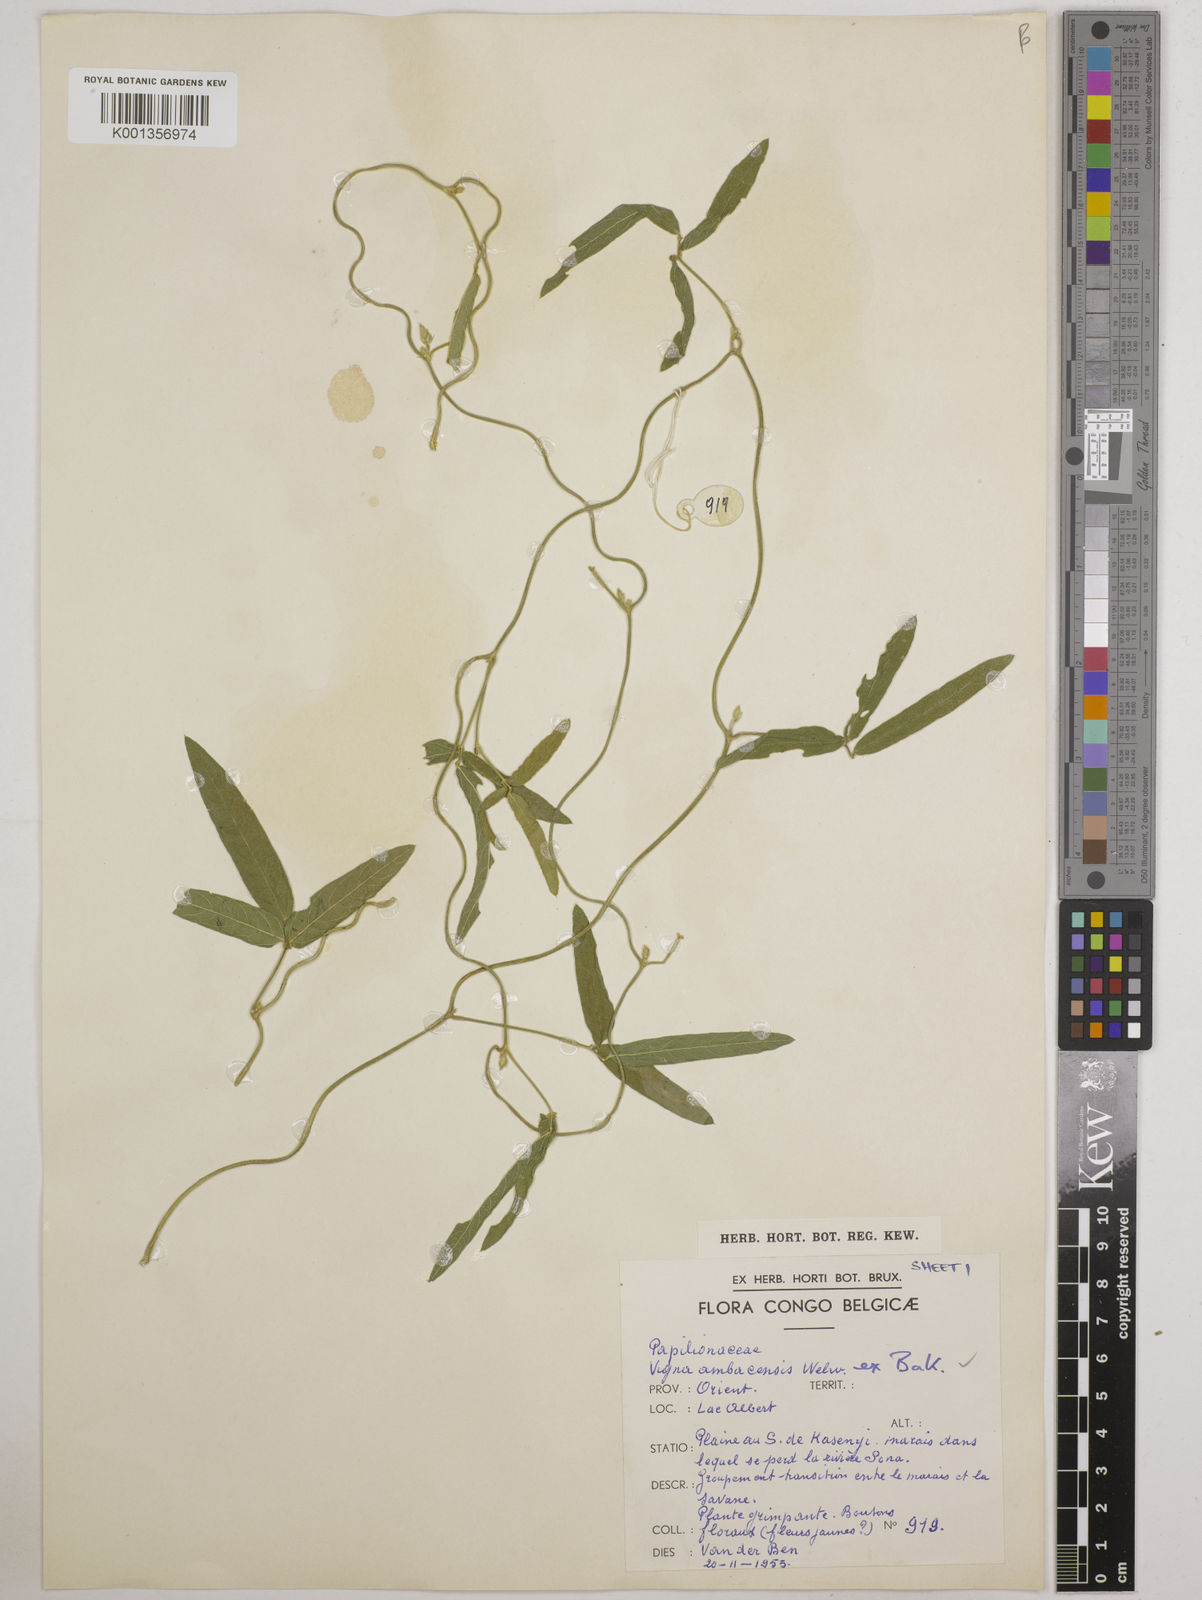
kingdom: Plantae
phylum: Tracheophyta
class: Magnoliopsida
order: Fabales
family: Fabaceae
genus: Vigna
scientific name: Vigna ambacensis
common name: Tsarkiyan zomo
